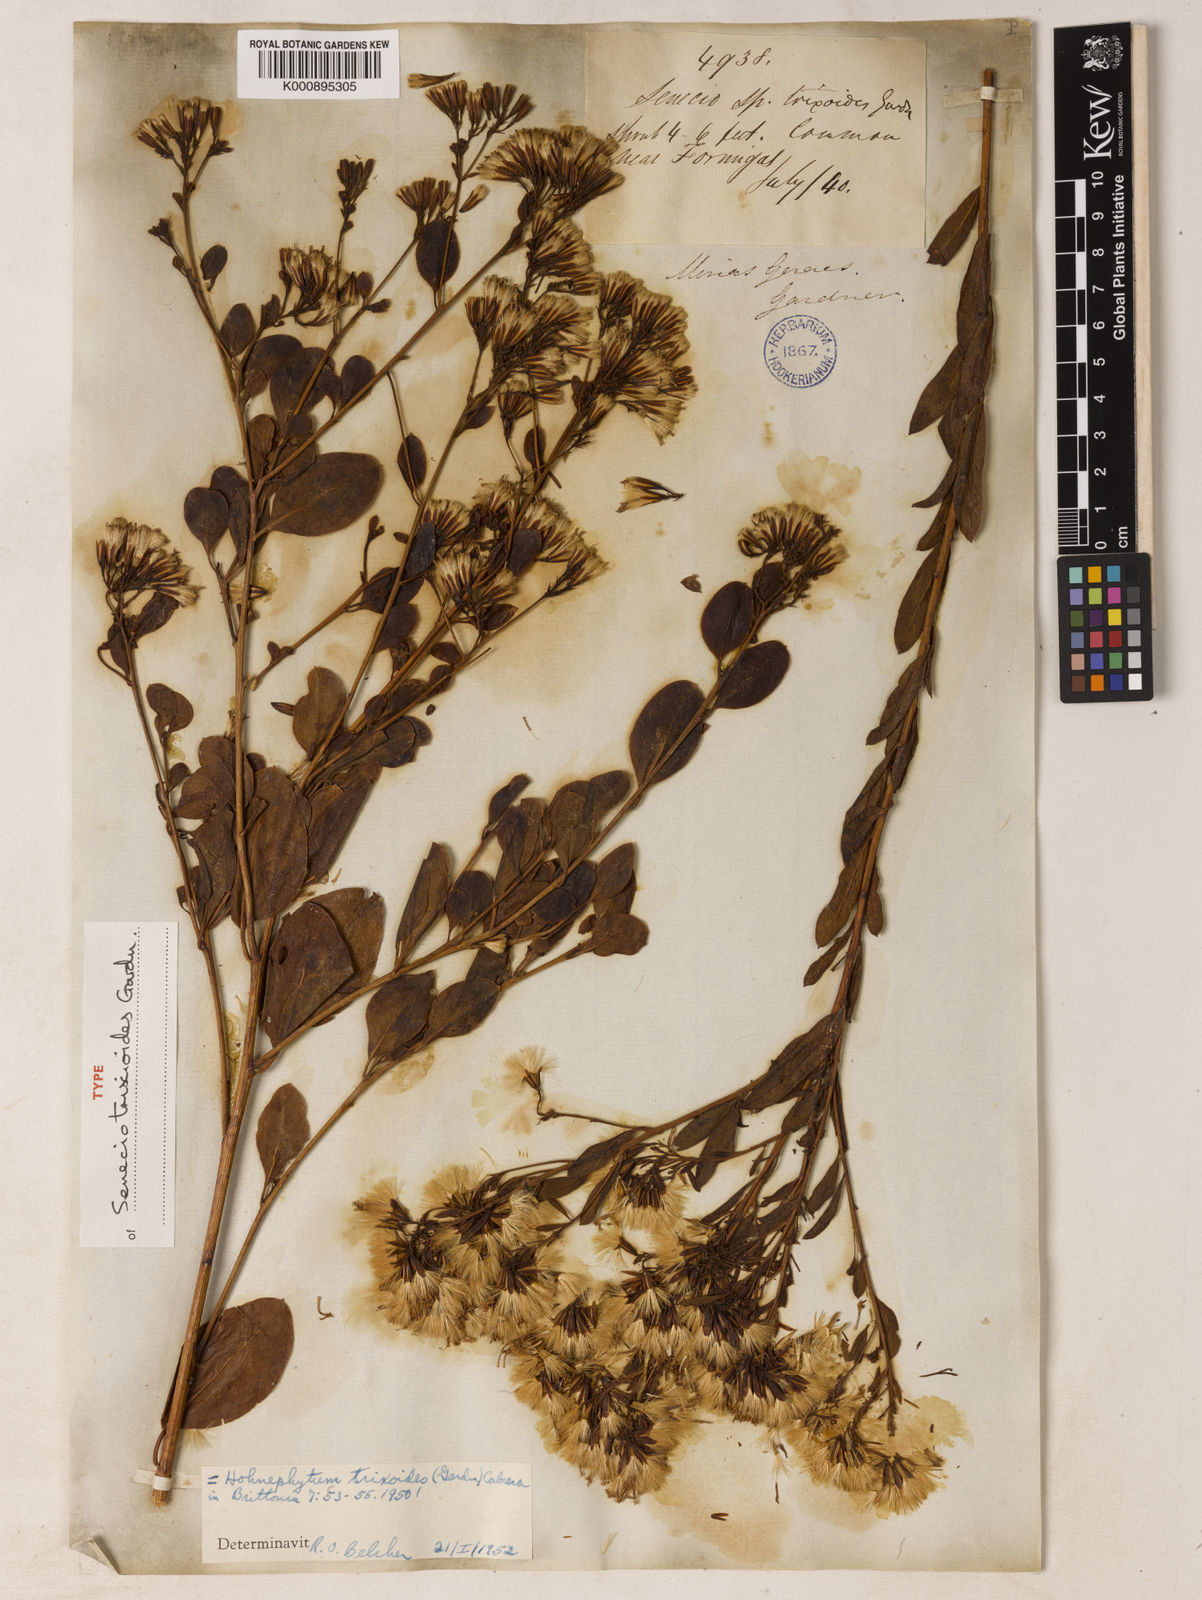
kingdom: Plantae
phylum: Tracheophyta
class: Magnoliopsida
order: Asterales
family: Asteraceae
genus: Hoehnephytum
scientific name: Hoehnephytum trixoides
